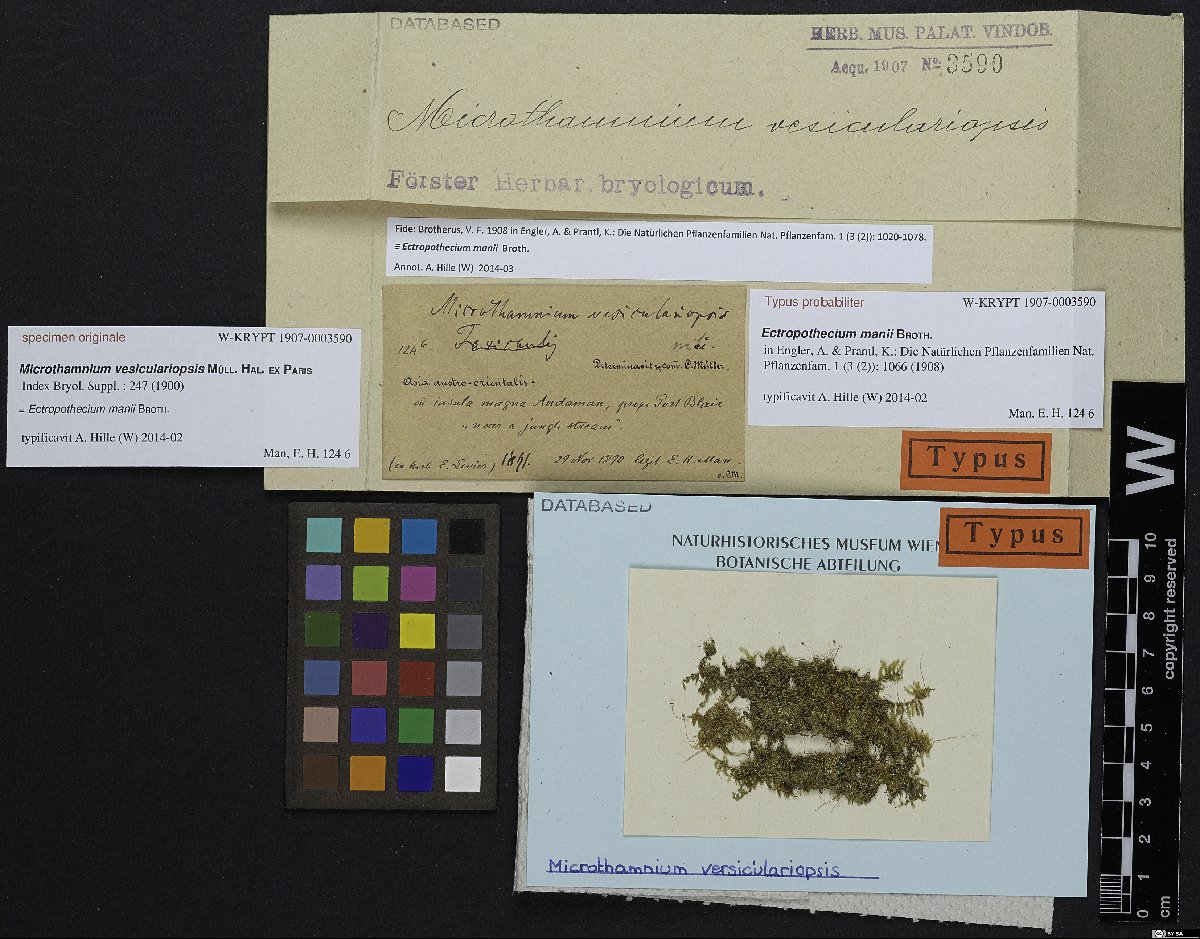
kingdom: Plantae
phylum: Bryophyta
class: Bryopsida
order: Hypnales
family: Hypnaceae
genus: Ectropothecium
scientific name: Ectropothecium manii
